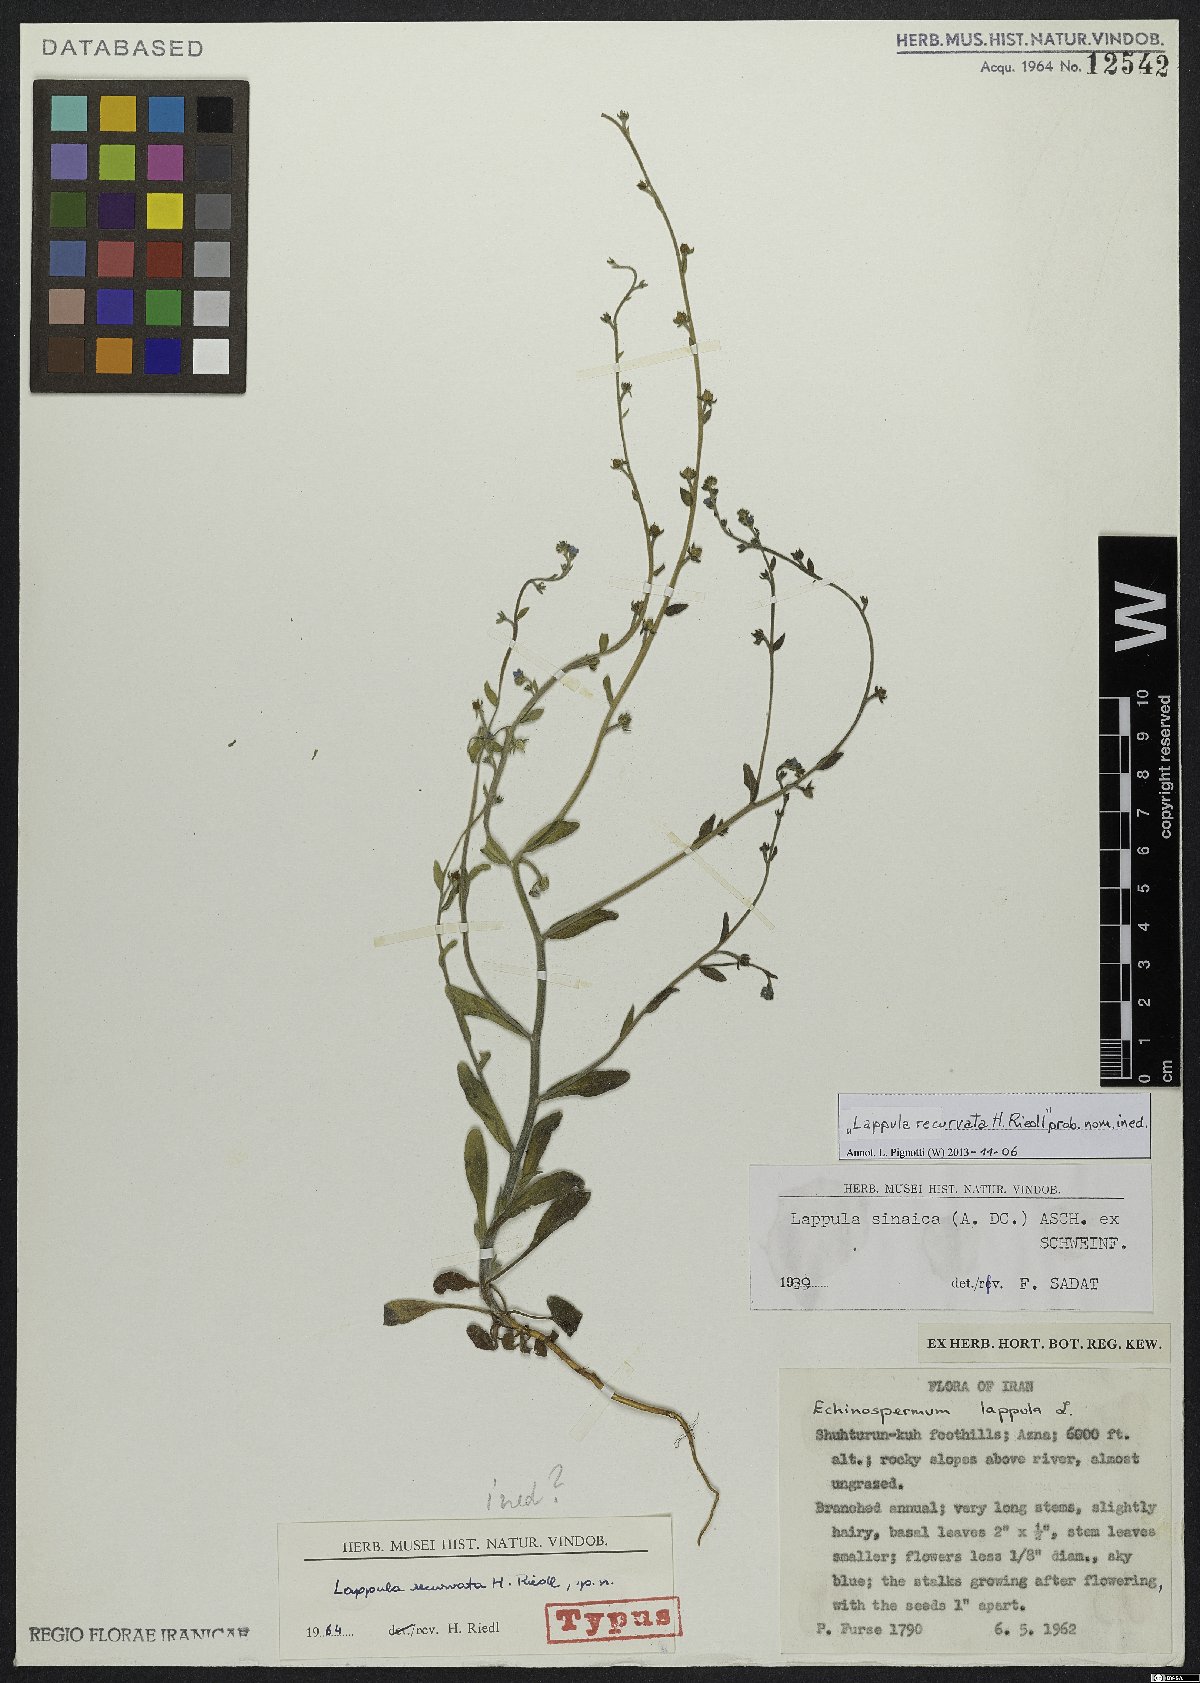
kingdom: Plantae
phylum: Tracheophyta
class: Magnoliopsida
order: Boraginales
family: Boraginaceae
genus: Pseudolappula
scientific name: Pseudolappula sinaica
